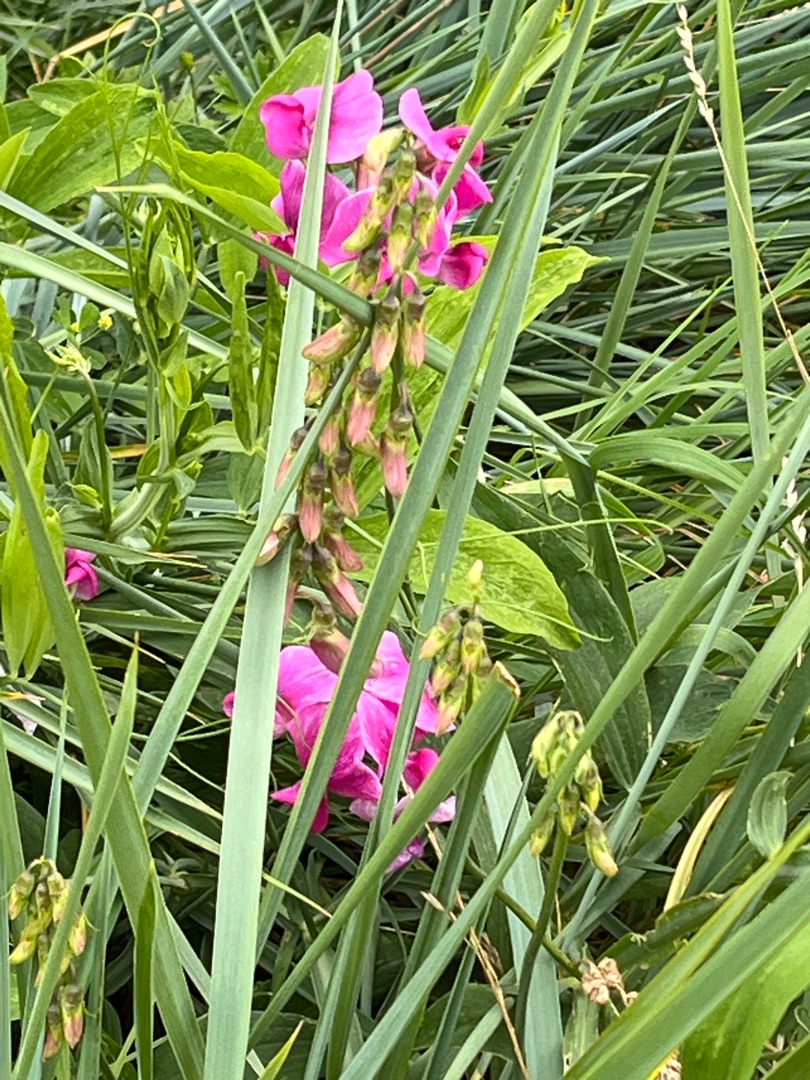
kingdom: Plantae
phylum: Tracheophyta
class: Magnoliopsida
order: Fabales
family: Fabaceae
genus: Lathyrus
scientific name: Lathyrus latifolius
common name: Flerårig ærteblomst
